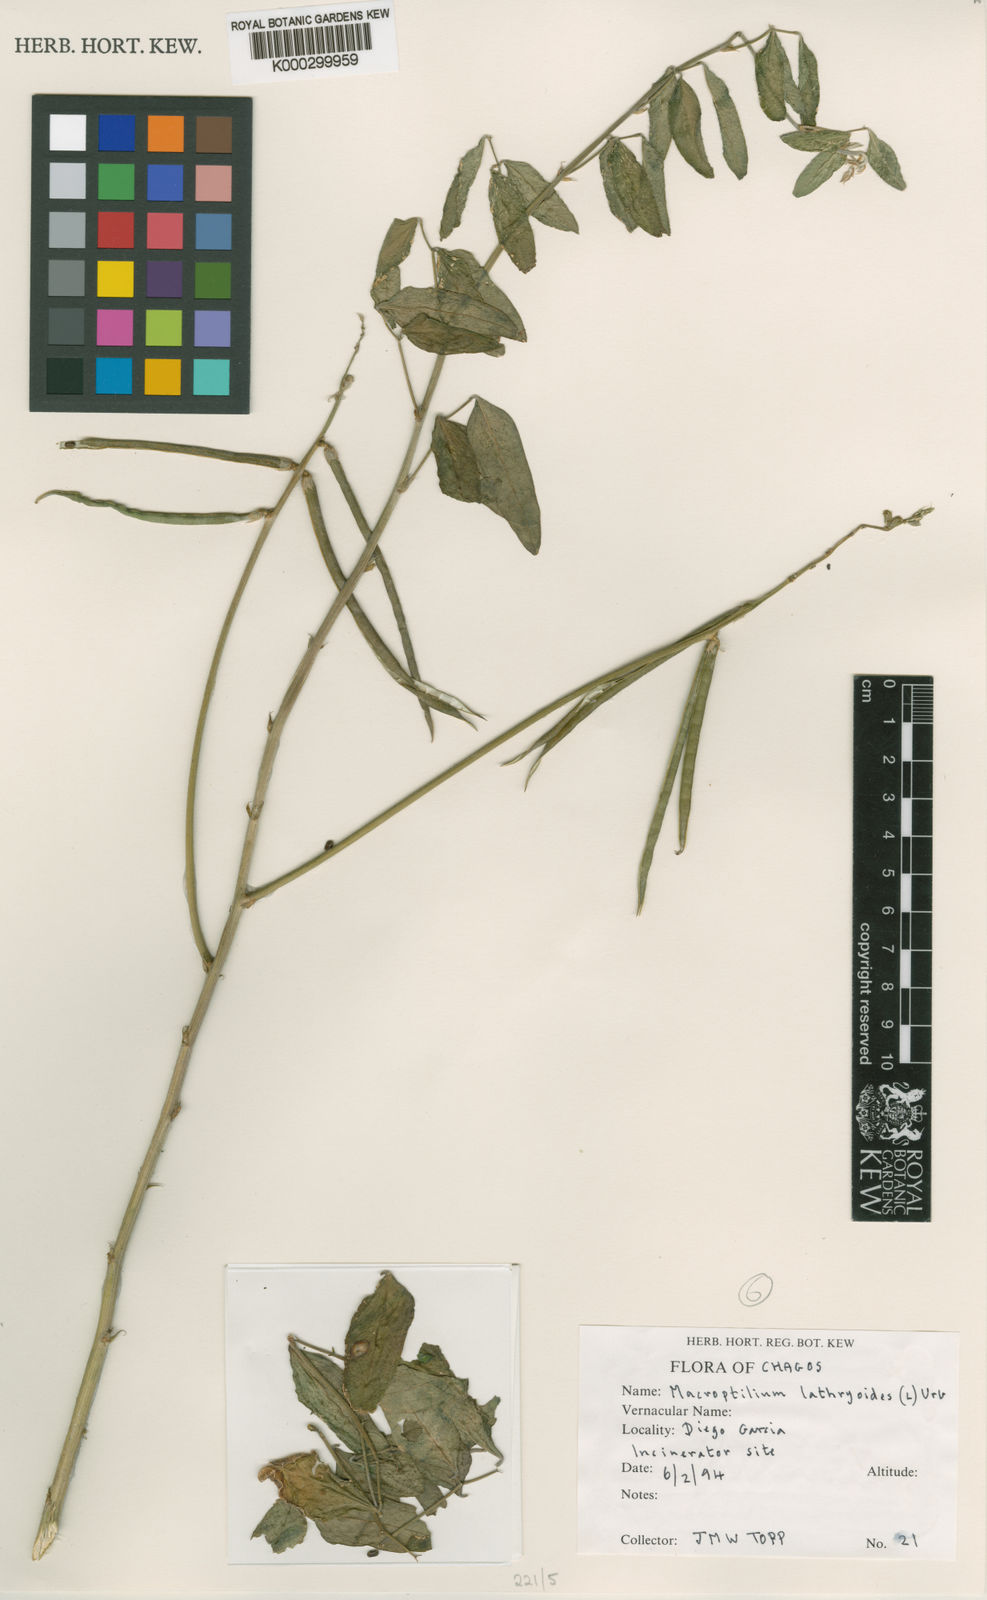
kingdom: Plantae
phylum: Tracheophyta
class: Magnoliopsida
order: Fabales
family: Fabaceae
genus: Macroptilium
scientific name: Macroptilium lathyroides
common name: Wild bushbean
